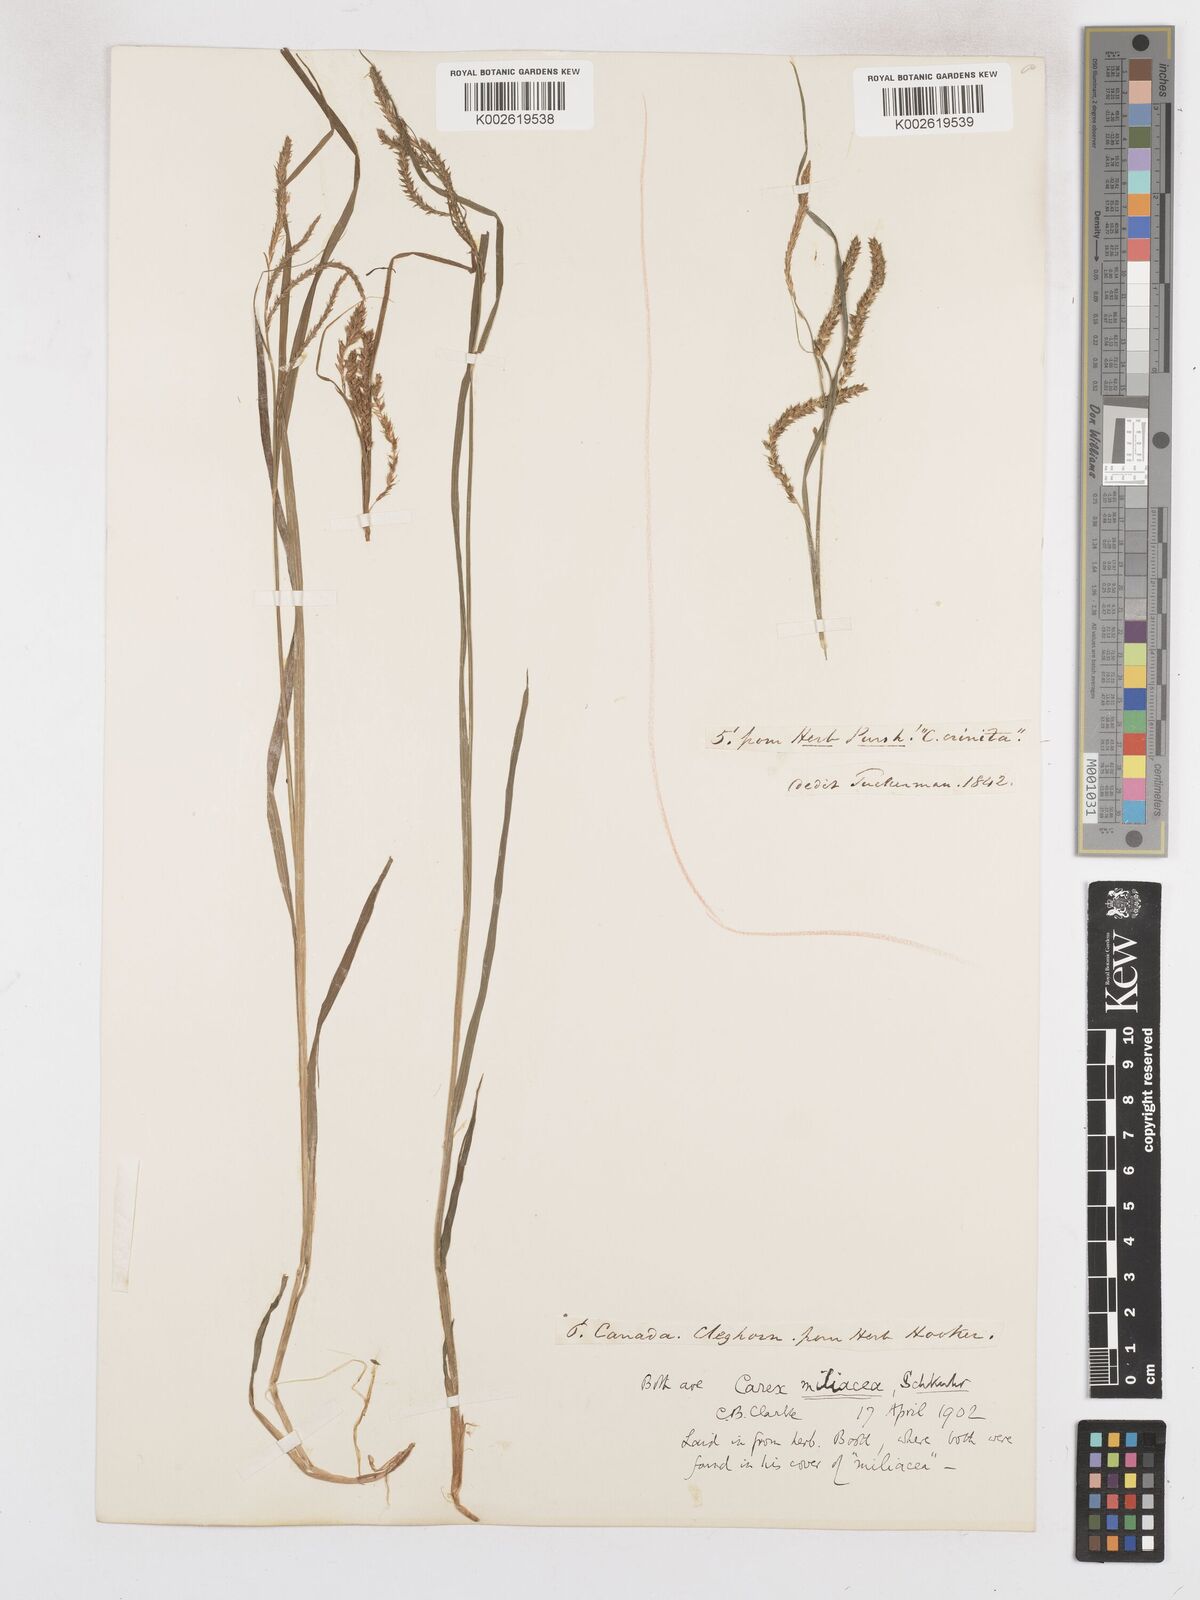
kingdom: Plantae
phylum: Tracheophyta
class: Liliopsida
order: Poales
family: Cyperaceae
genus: Carex
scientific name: Carex prasina
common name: Drooping sedge
